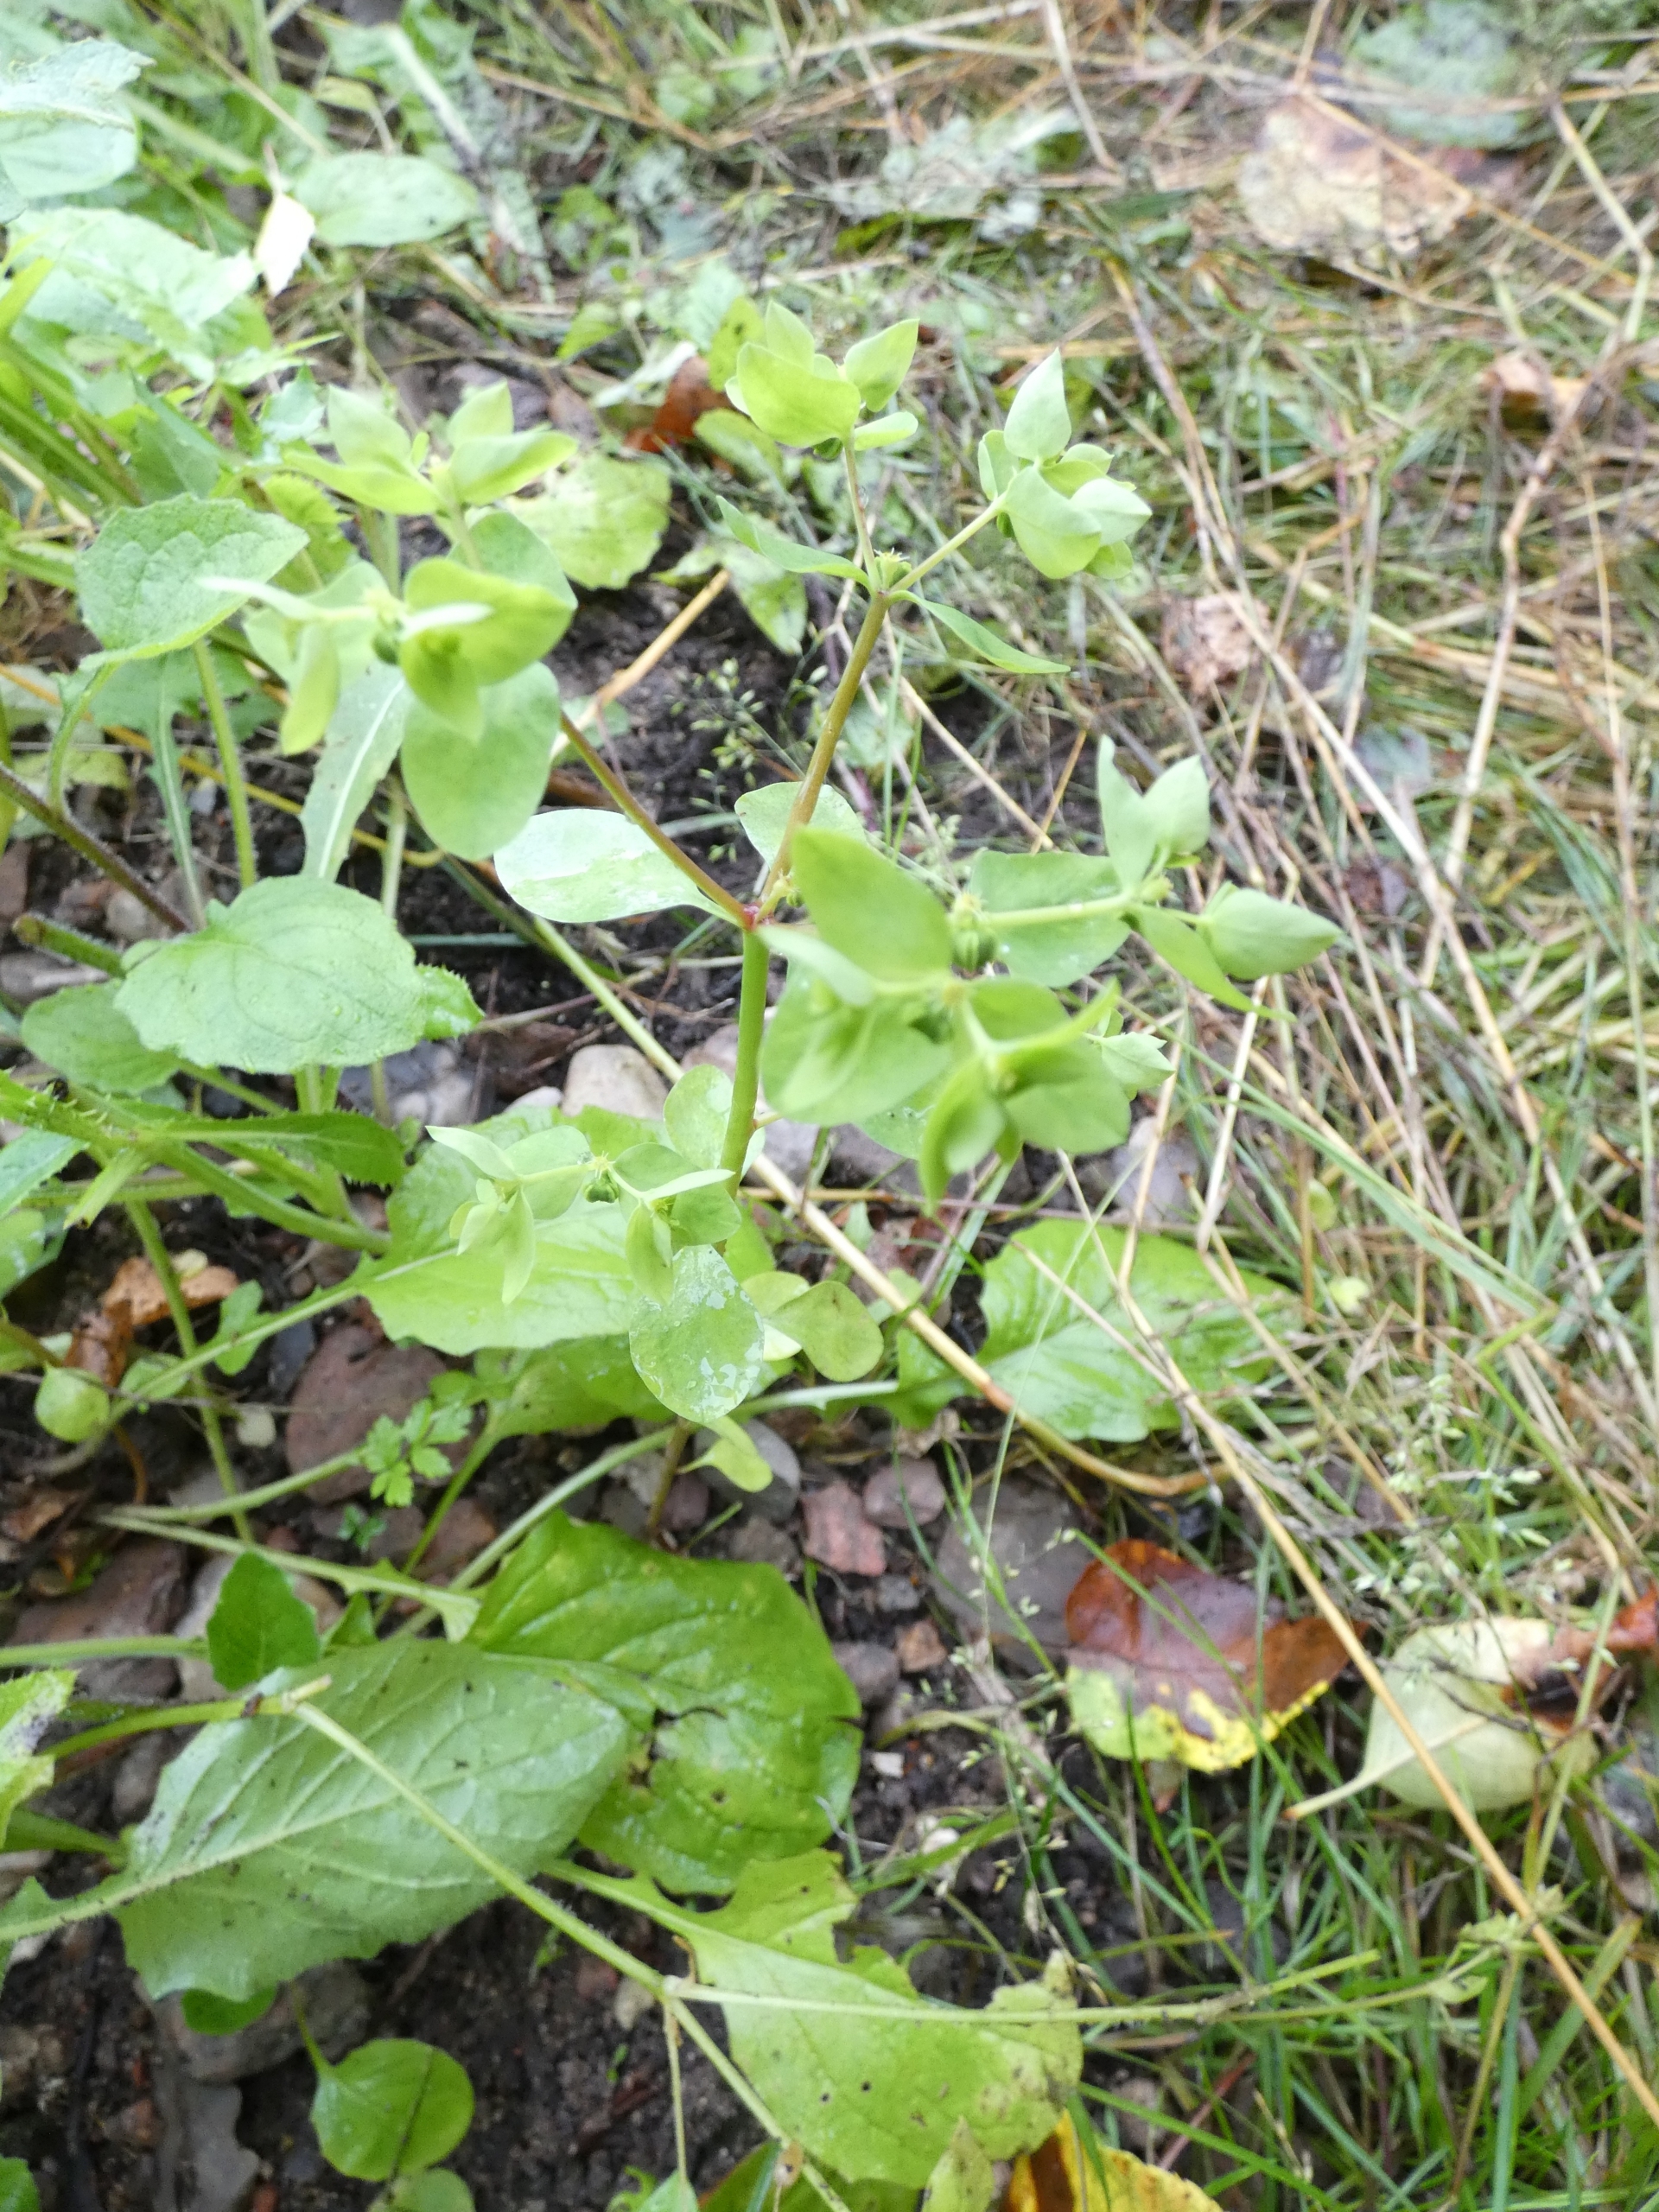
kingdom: Plantae
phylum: Tracheophyta
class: Magnoliopsida
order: Malpighiales
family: Euphorbiaceae
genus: Euphorbia
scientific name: Euphorbia peplus
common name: Gaffel-vortemælk
